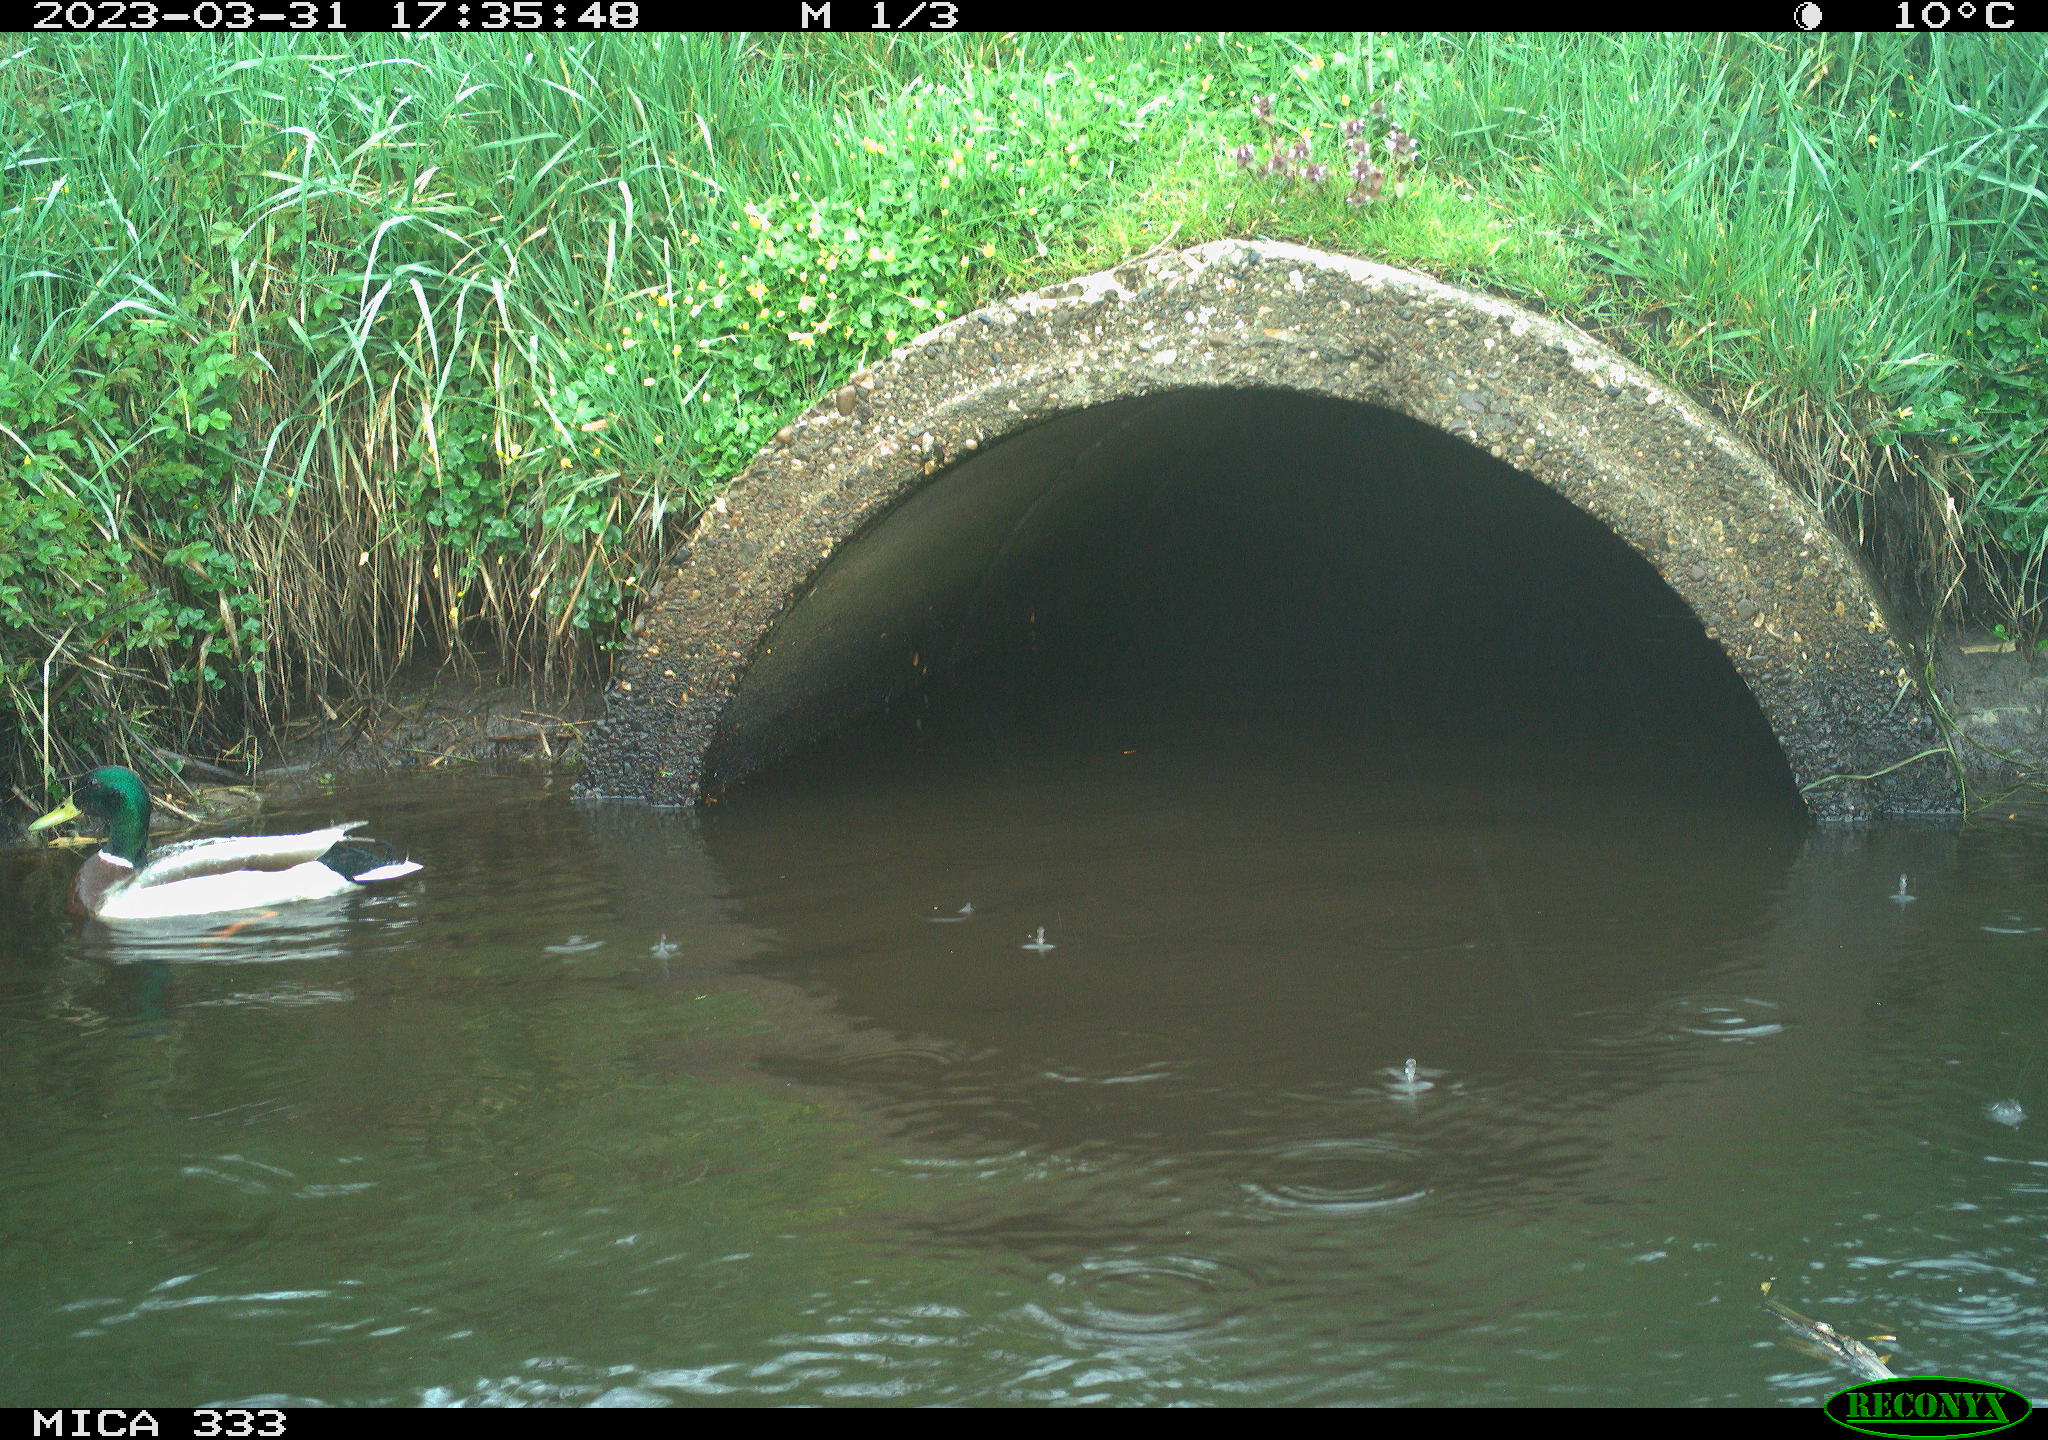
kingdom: Animalia
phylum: Chordata
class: Aves
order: Anseriformes
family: Anatidae
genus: Anas
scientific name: Anas platyrhynchos
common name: Mallard
